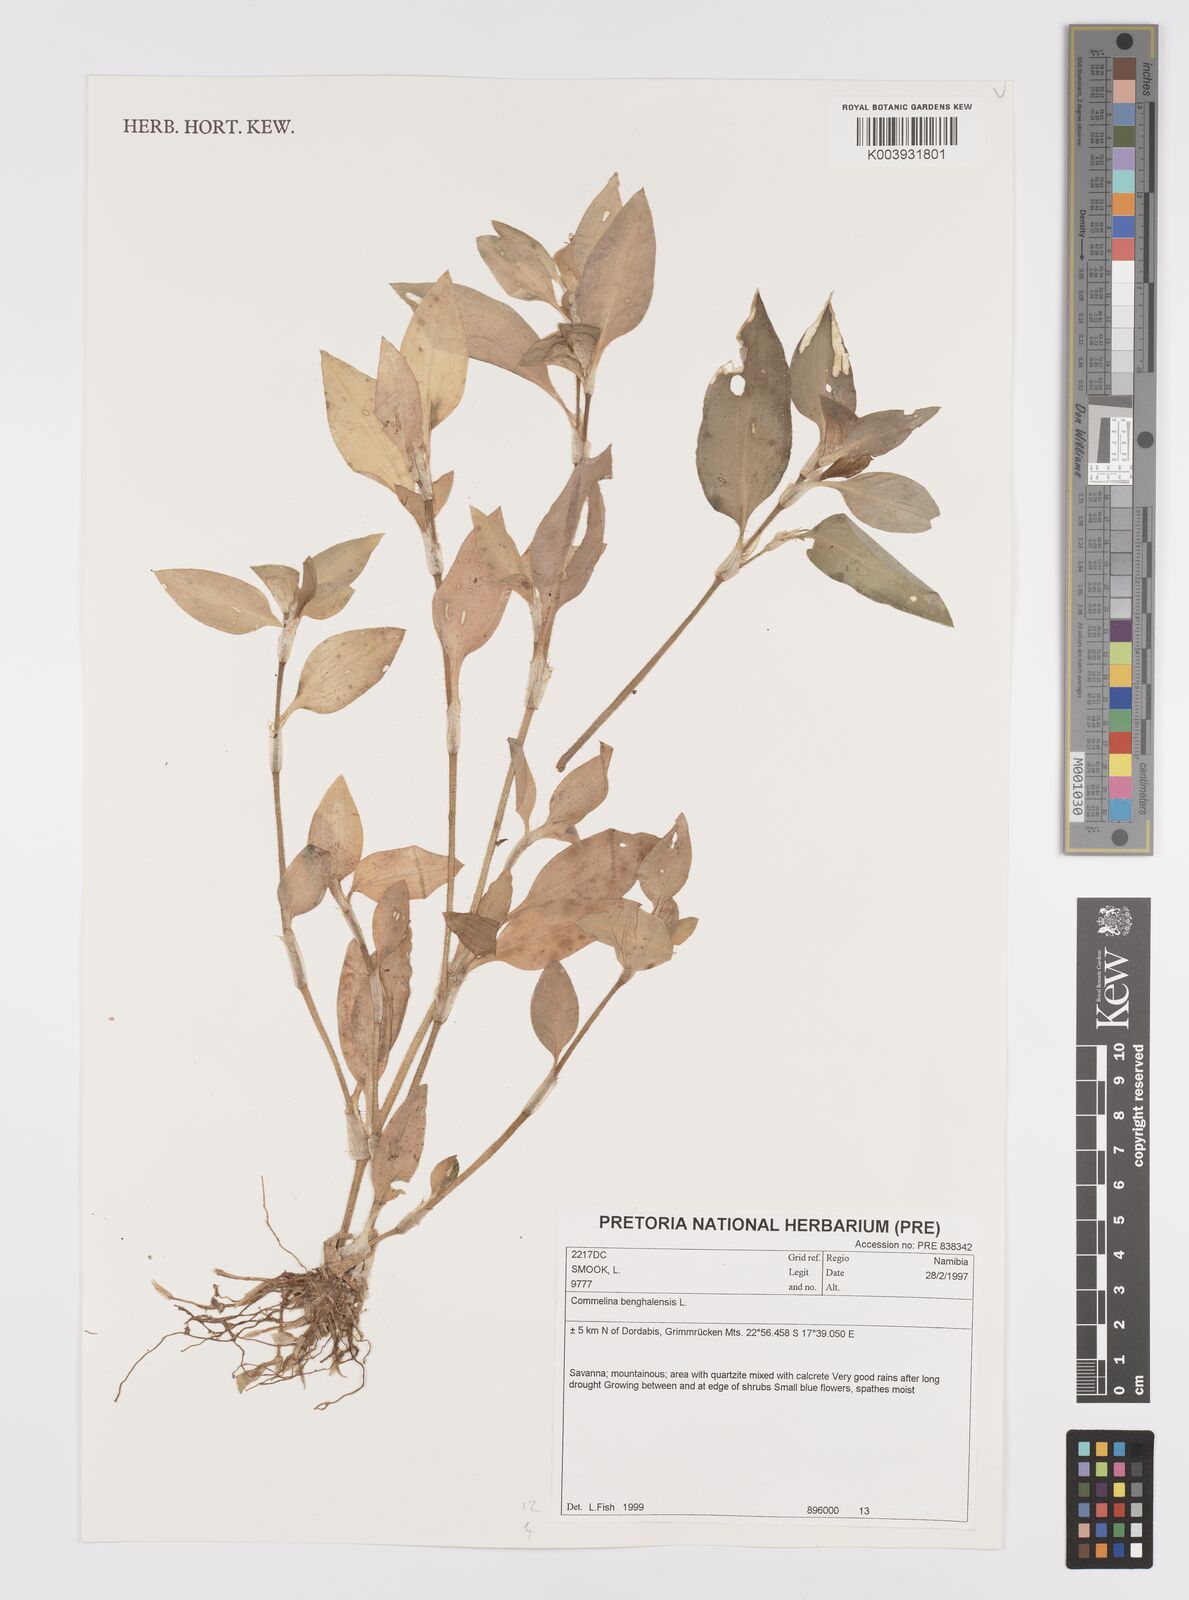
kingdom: Plantae
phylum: Tracheophyta
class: Liliopsida
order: Commelinales
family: Commelinaceae
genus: Commelina
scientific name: Commelina benghalensis
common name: Jio
